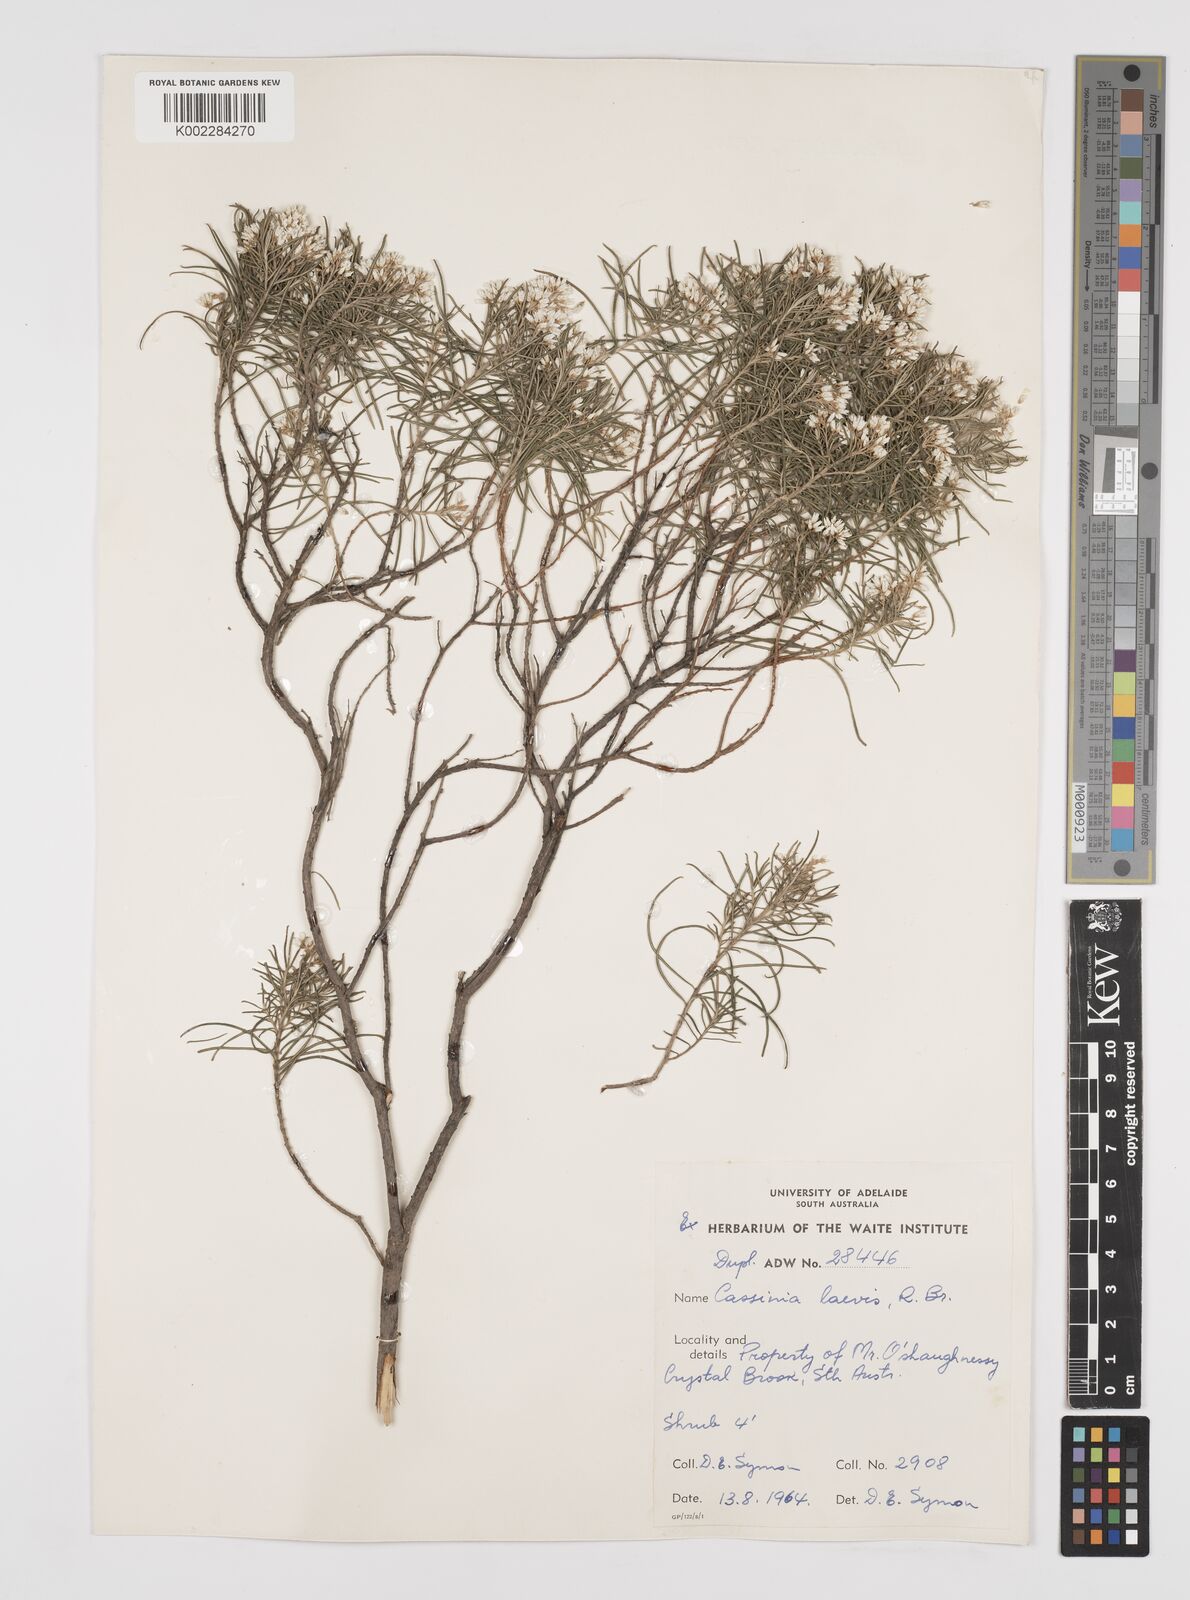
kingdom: Plantae
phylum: Tracheophyta
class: Magnoliopsida
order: Asterales
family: Asteraceae
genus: Cassinia
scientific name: Cassinia laevis
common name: Coughbush
